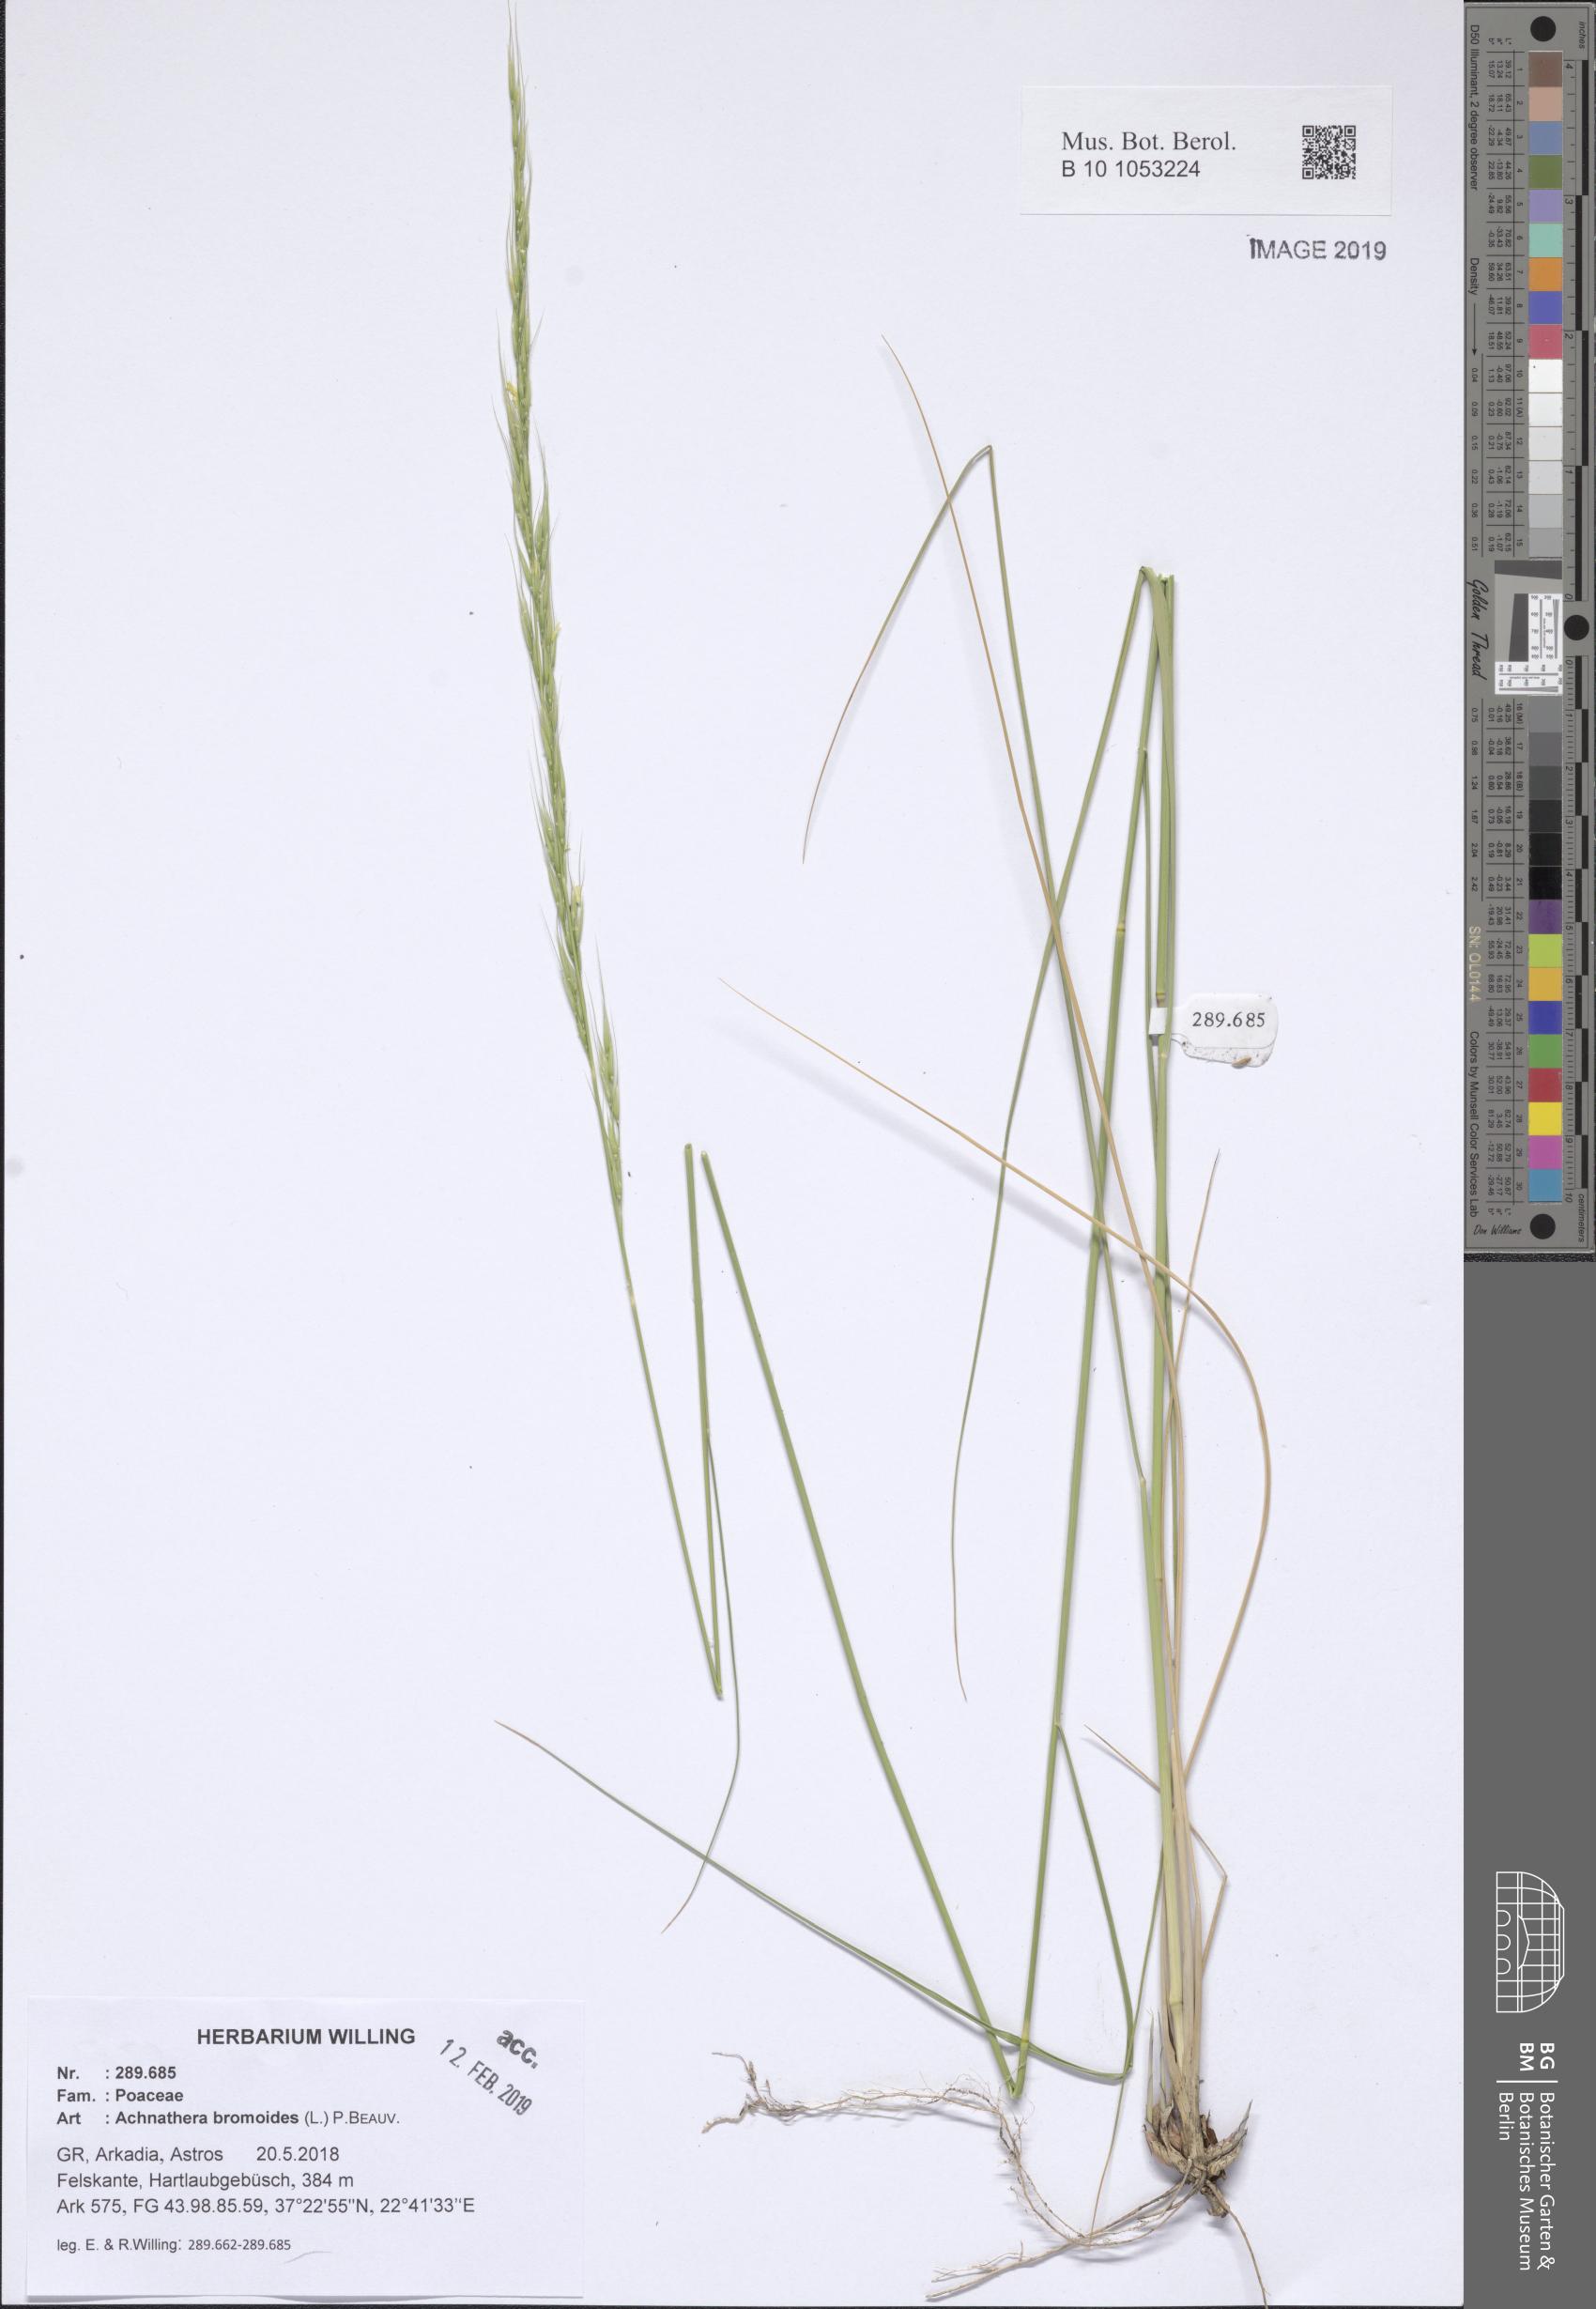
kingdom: Plantae
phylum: Tracheophyta
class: Liliopsida
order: Poales
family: Poaceae
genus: Achnatherum
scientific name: Achnatherum bromoides
